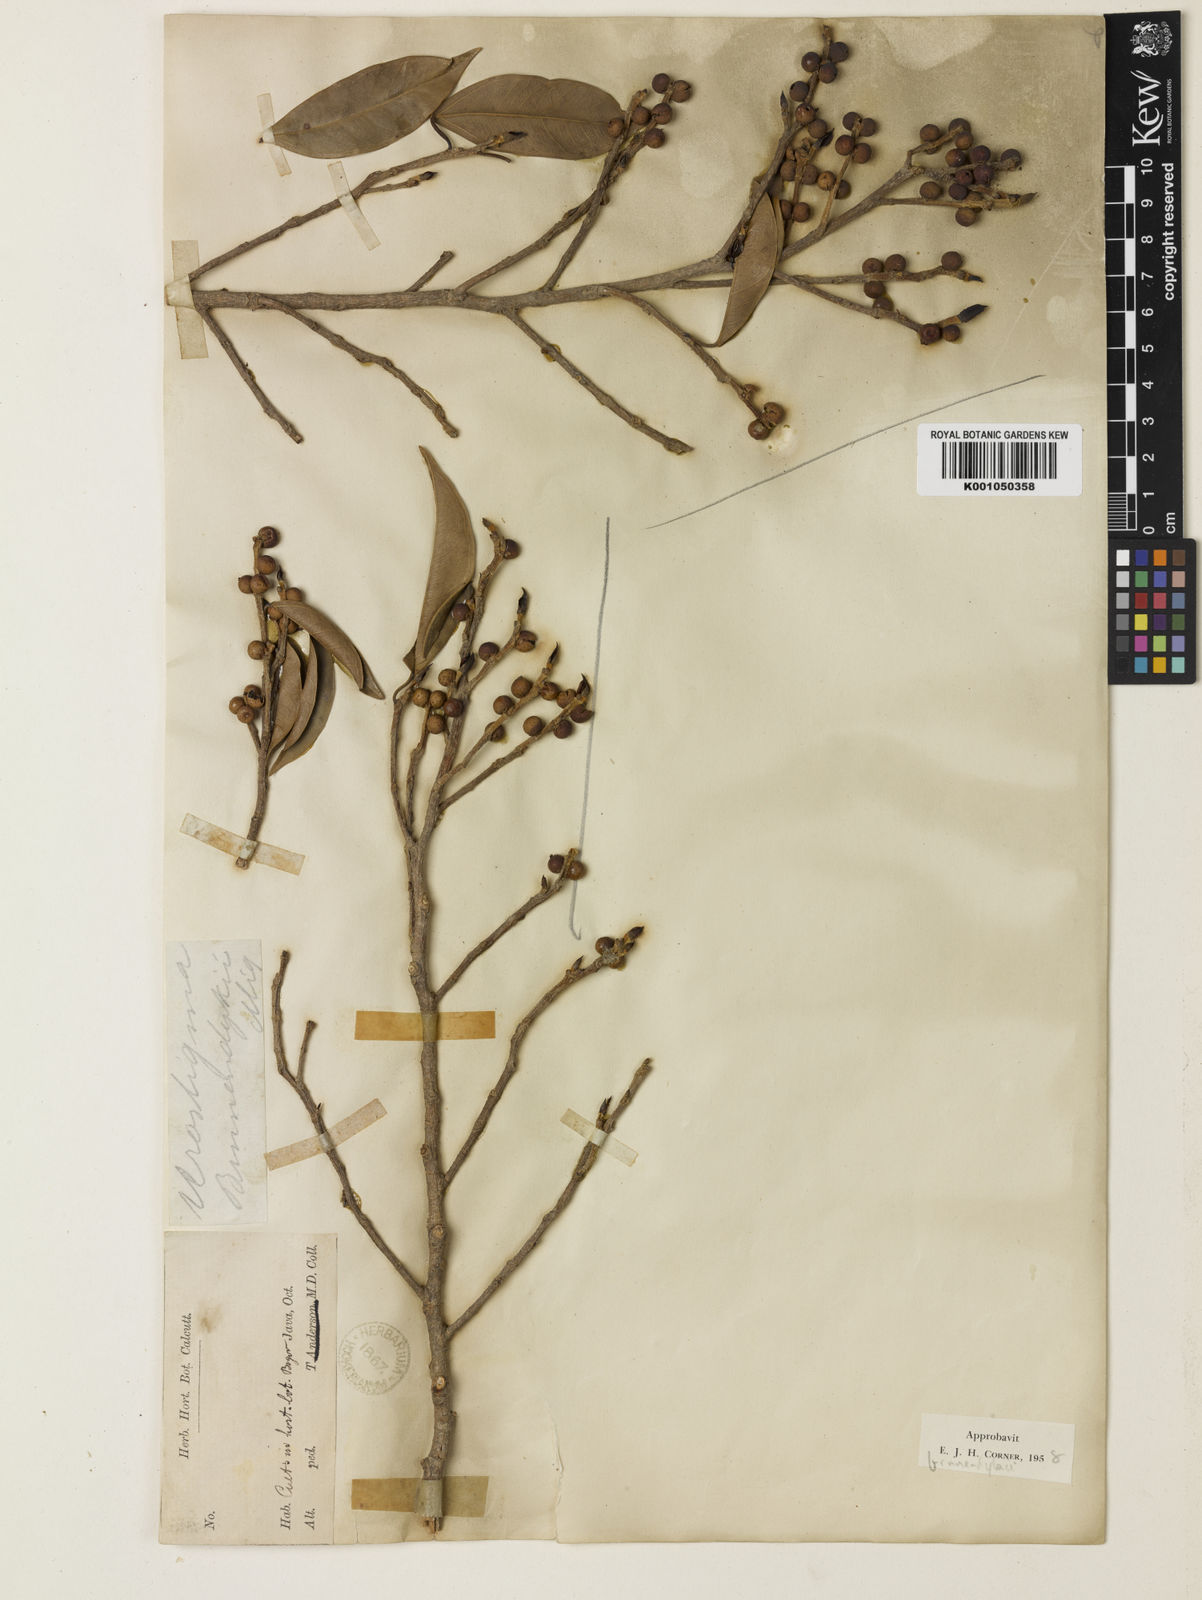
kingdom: Plantae
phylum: Tracheophyta
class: Magnoliopsida
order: Rosales
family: Moraceae
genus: Ficus
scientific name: Ficus
